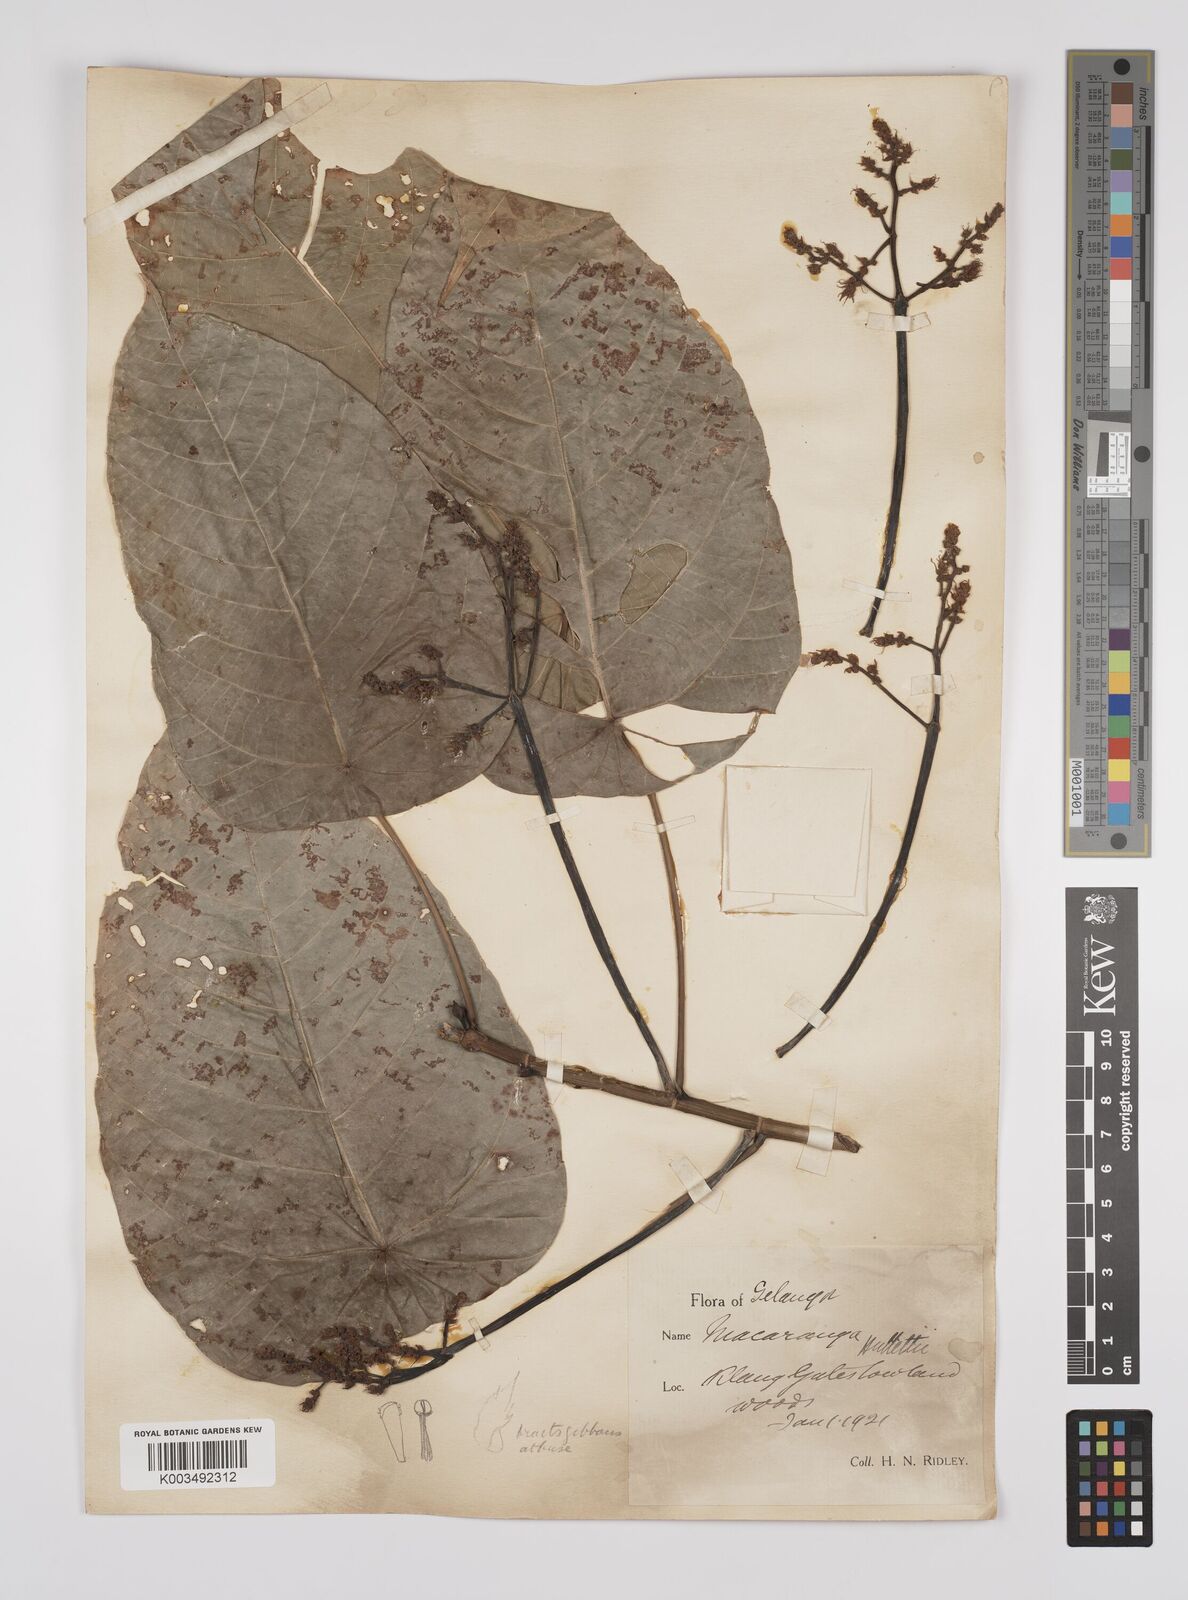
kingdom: Plantae
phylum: Tracheophyta
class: Magnoliopsida
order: Malpighiales
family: Euphorbiaceae
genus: Macaranga
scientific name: Macaranga hullettii
